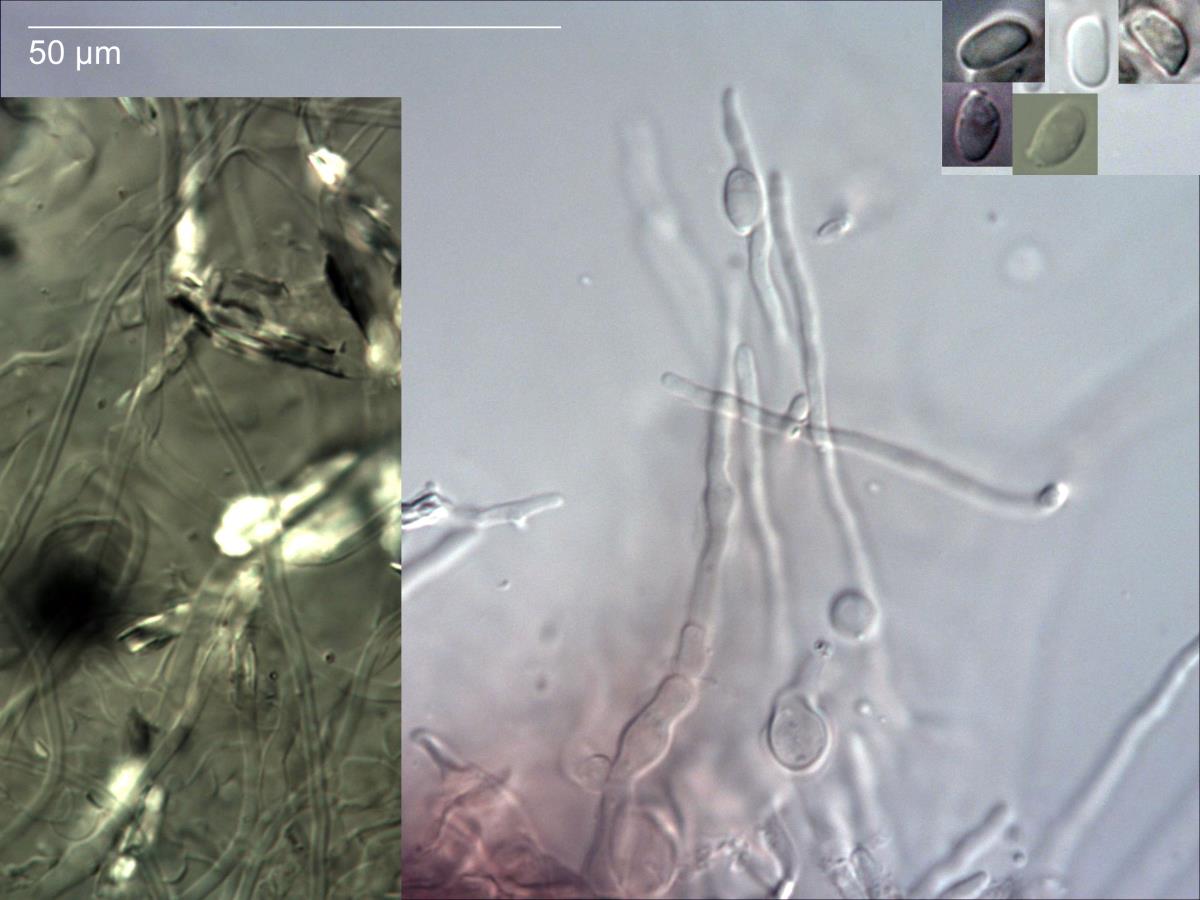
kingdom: Fungi
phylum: Basidiomycota
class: Agaricomycetes
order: Agaricales
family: Omphalotaceae
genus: Marasmiellus
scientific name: Marasmiellus
